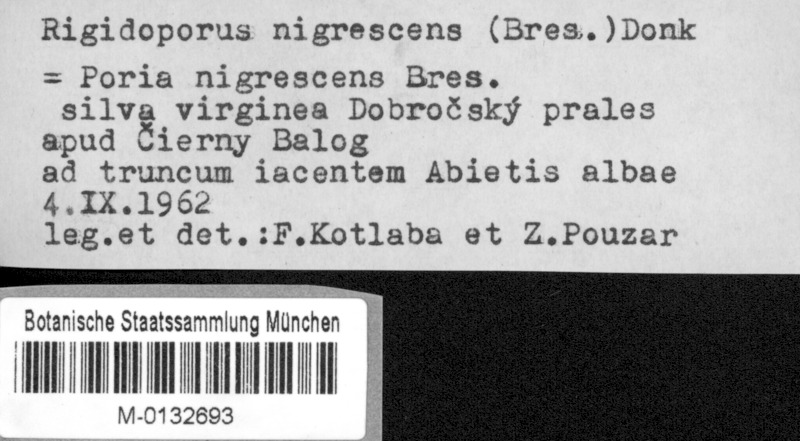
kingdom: Plantae
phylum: Tracheophyta
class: Pinopsida
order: Pinales
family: Pinaceae
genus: Abies
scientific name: Abies alba
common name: Silver fir
